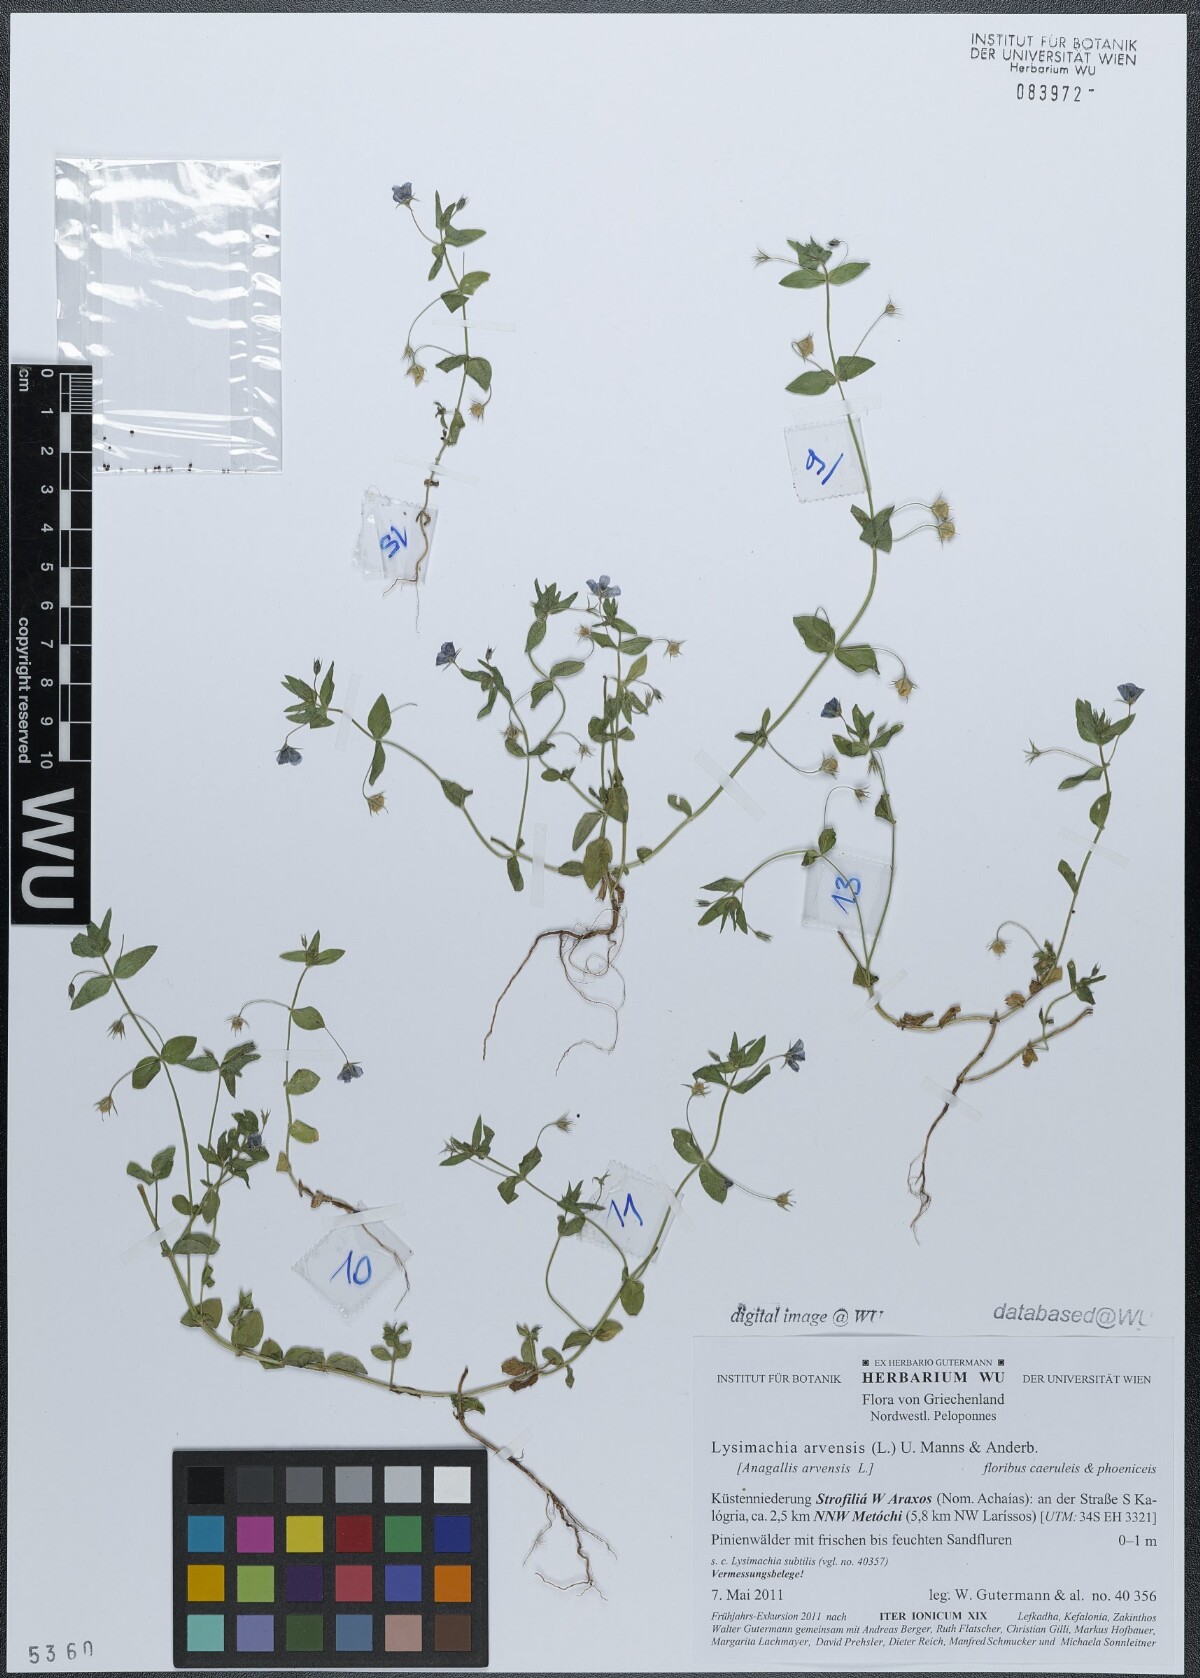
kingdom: Plantae
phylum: Tracheophyta
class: Magnoliopsida
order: Ericales
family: Primulaceae
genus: Lysimachia
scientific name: Lysimachia arvensis
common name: Scarlet pimpernel
